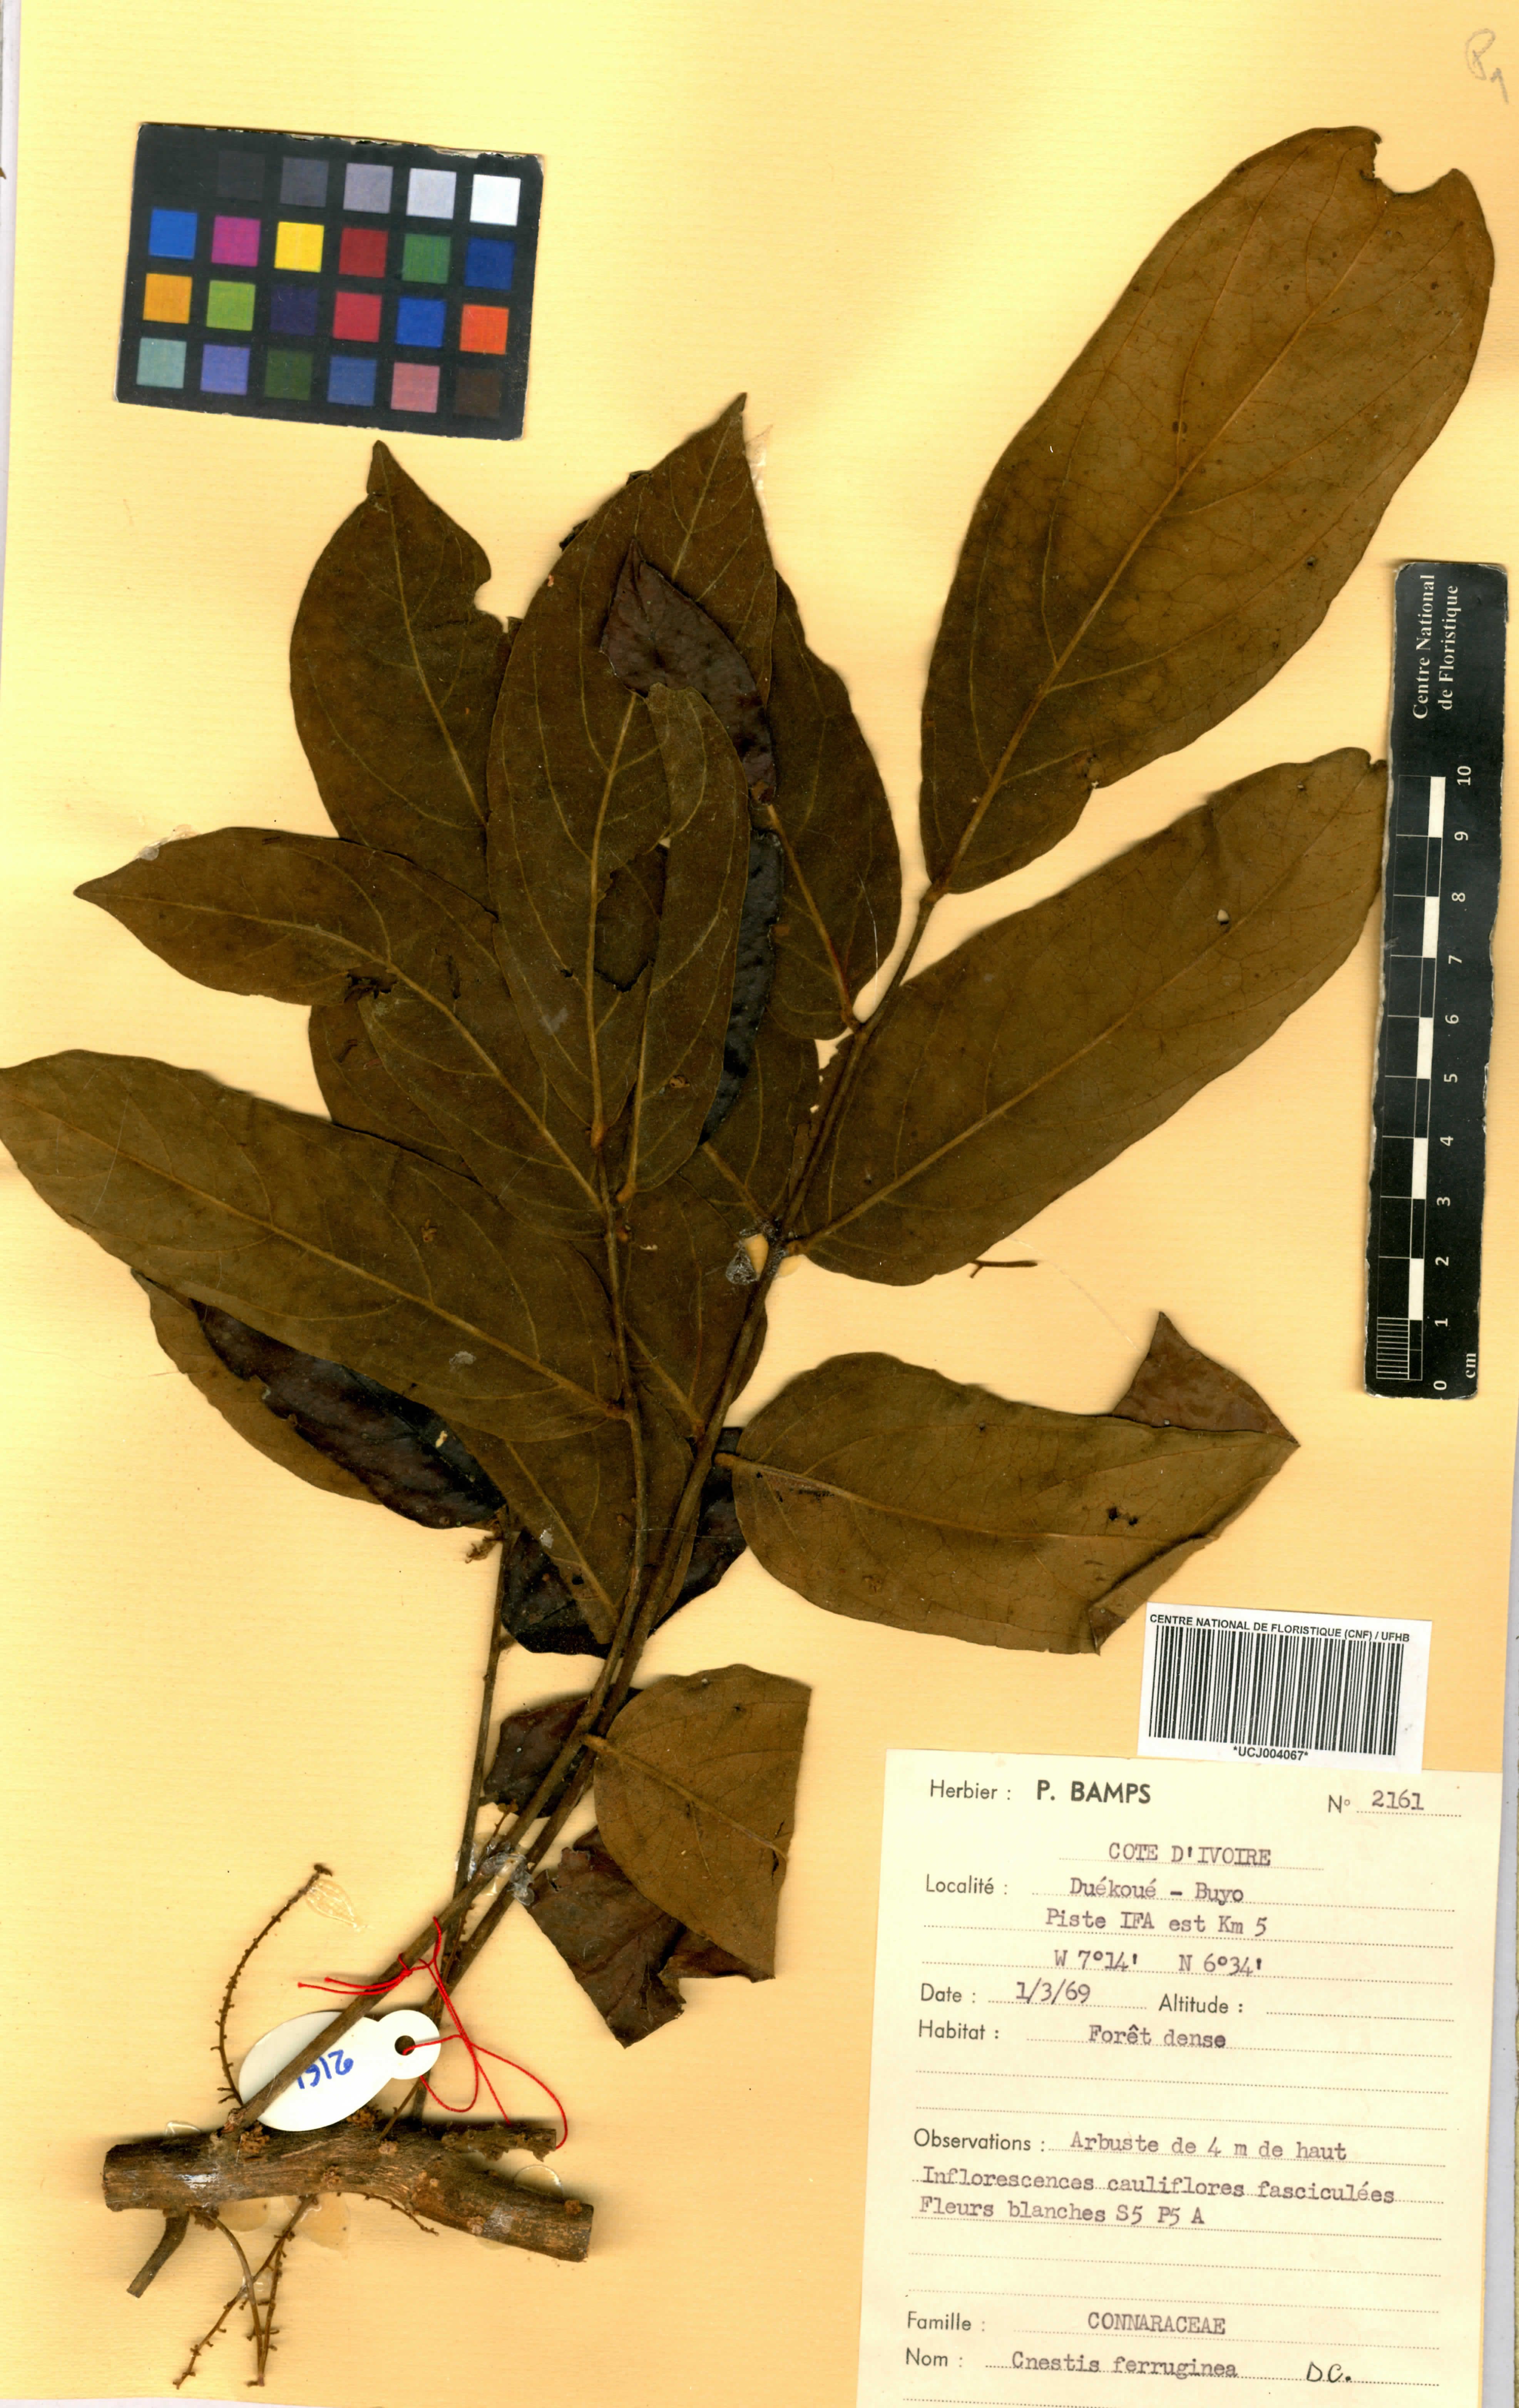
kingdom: Plantae
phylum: Tracheophyta
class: Magnoliopsida
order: Oxalidales
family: Connaraceae
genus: Cnestis
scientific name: Cnestis ferruginea
